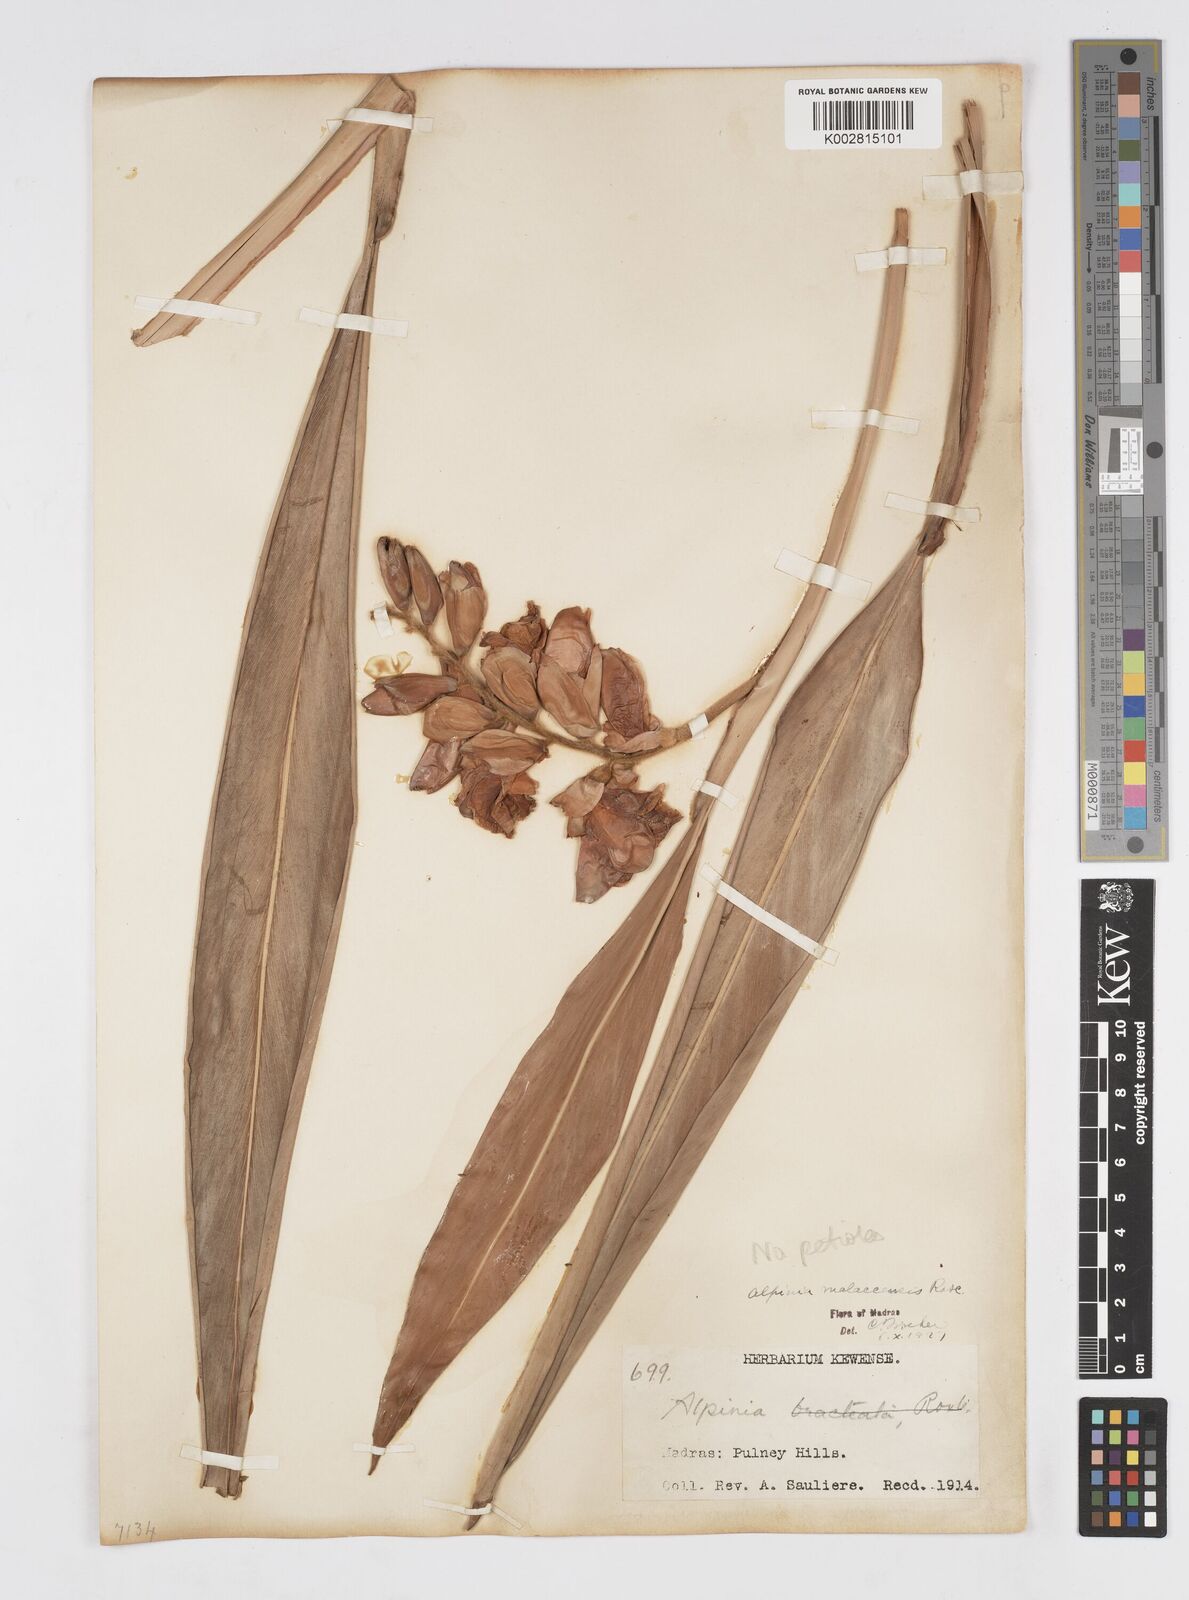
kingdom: Plantae
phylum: Tracheophyta
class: Liliopsida
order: Zingiberales
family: Zingiberaceae
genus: Alpinia
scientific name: Alpinia malaccensis
